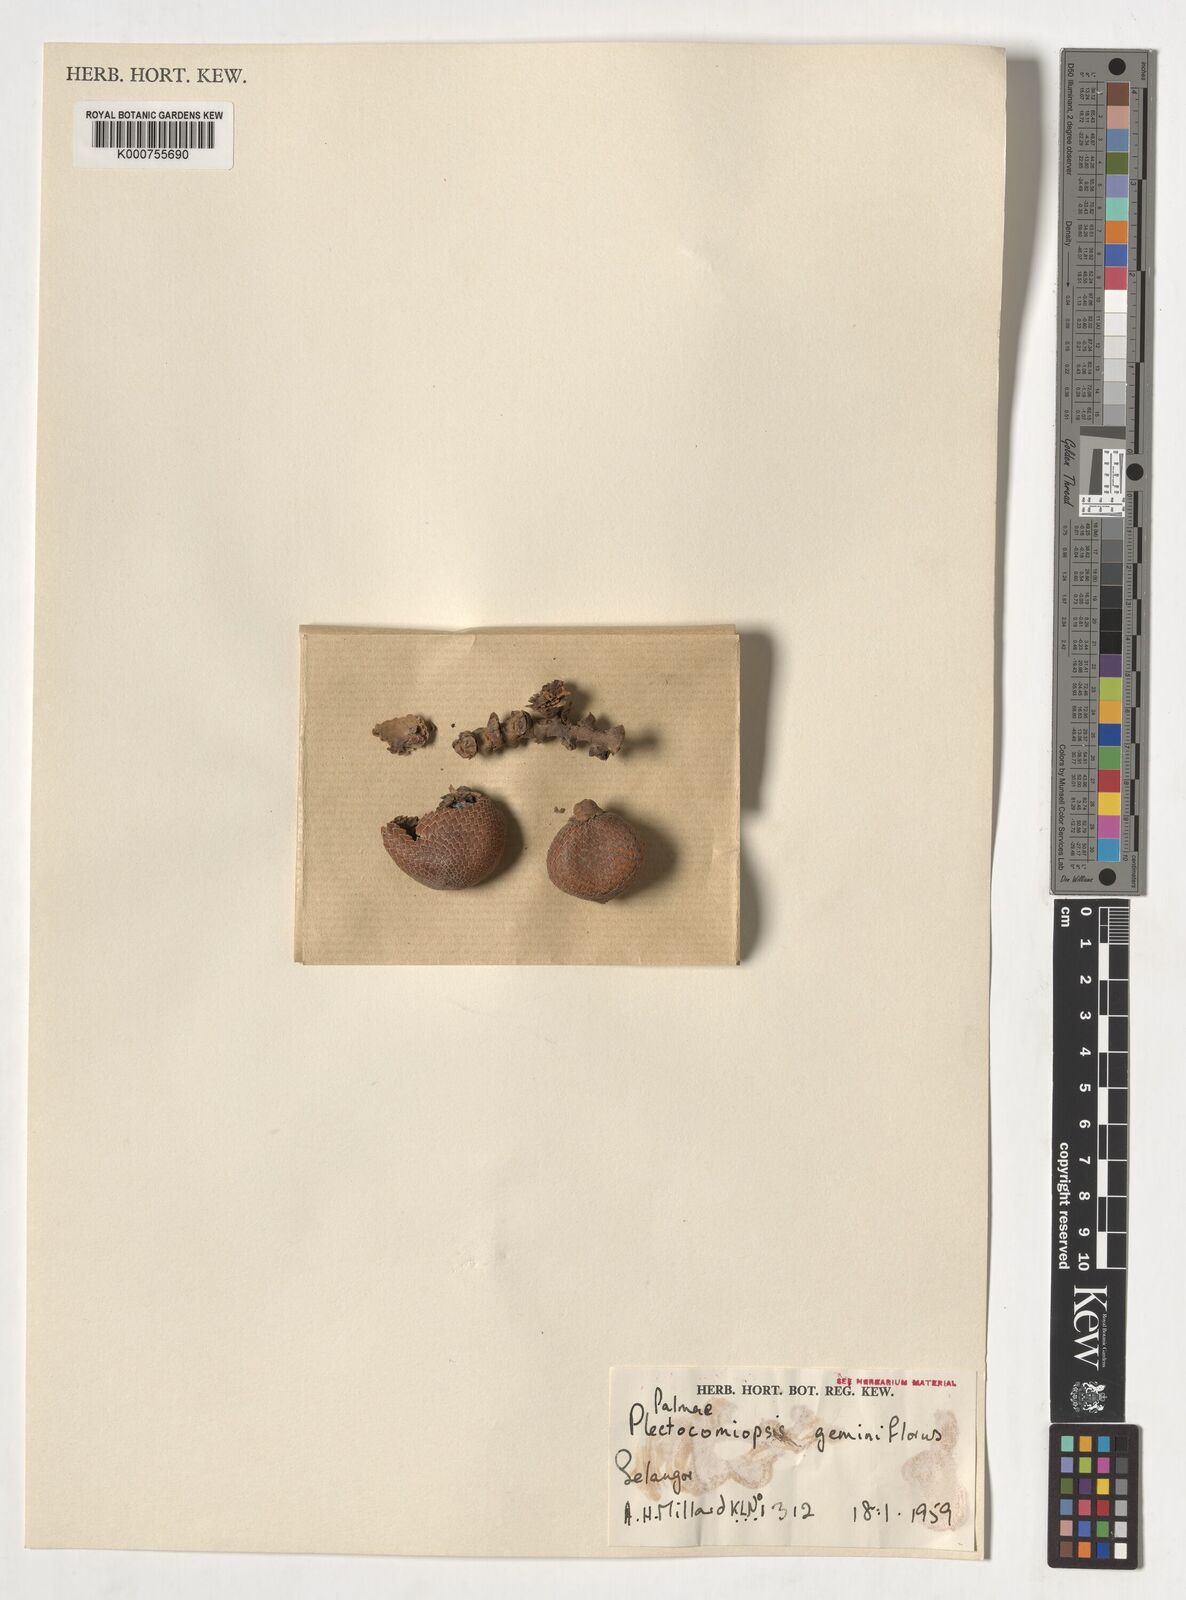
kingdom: Plantae
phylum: Tracheophyta
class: Liliopsida
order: Arecales
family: Arecaceae
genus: Plectocomiopsis
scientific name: Plectocomiopsis geminiflora
